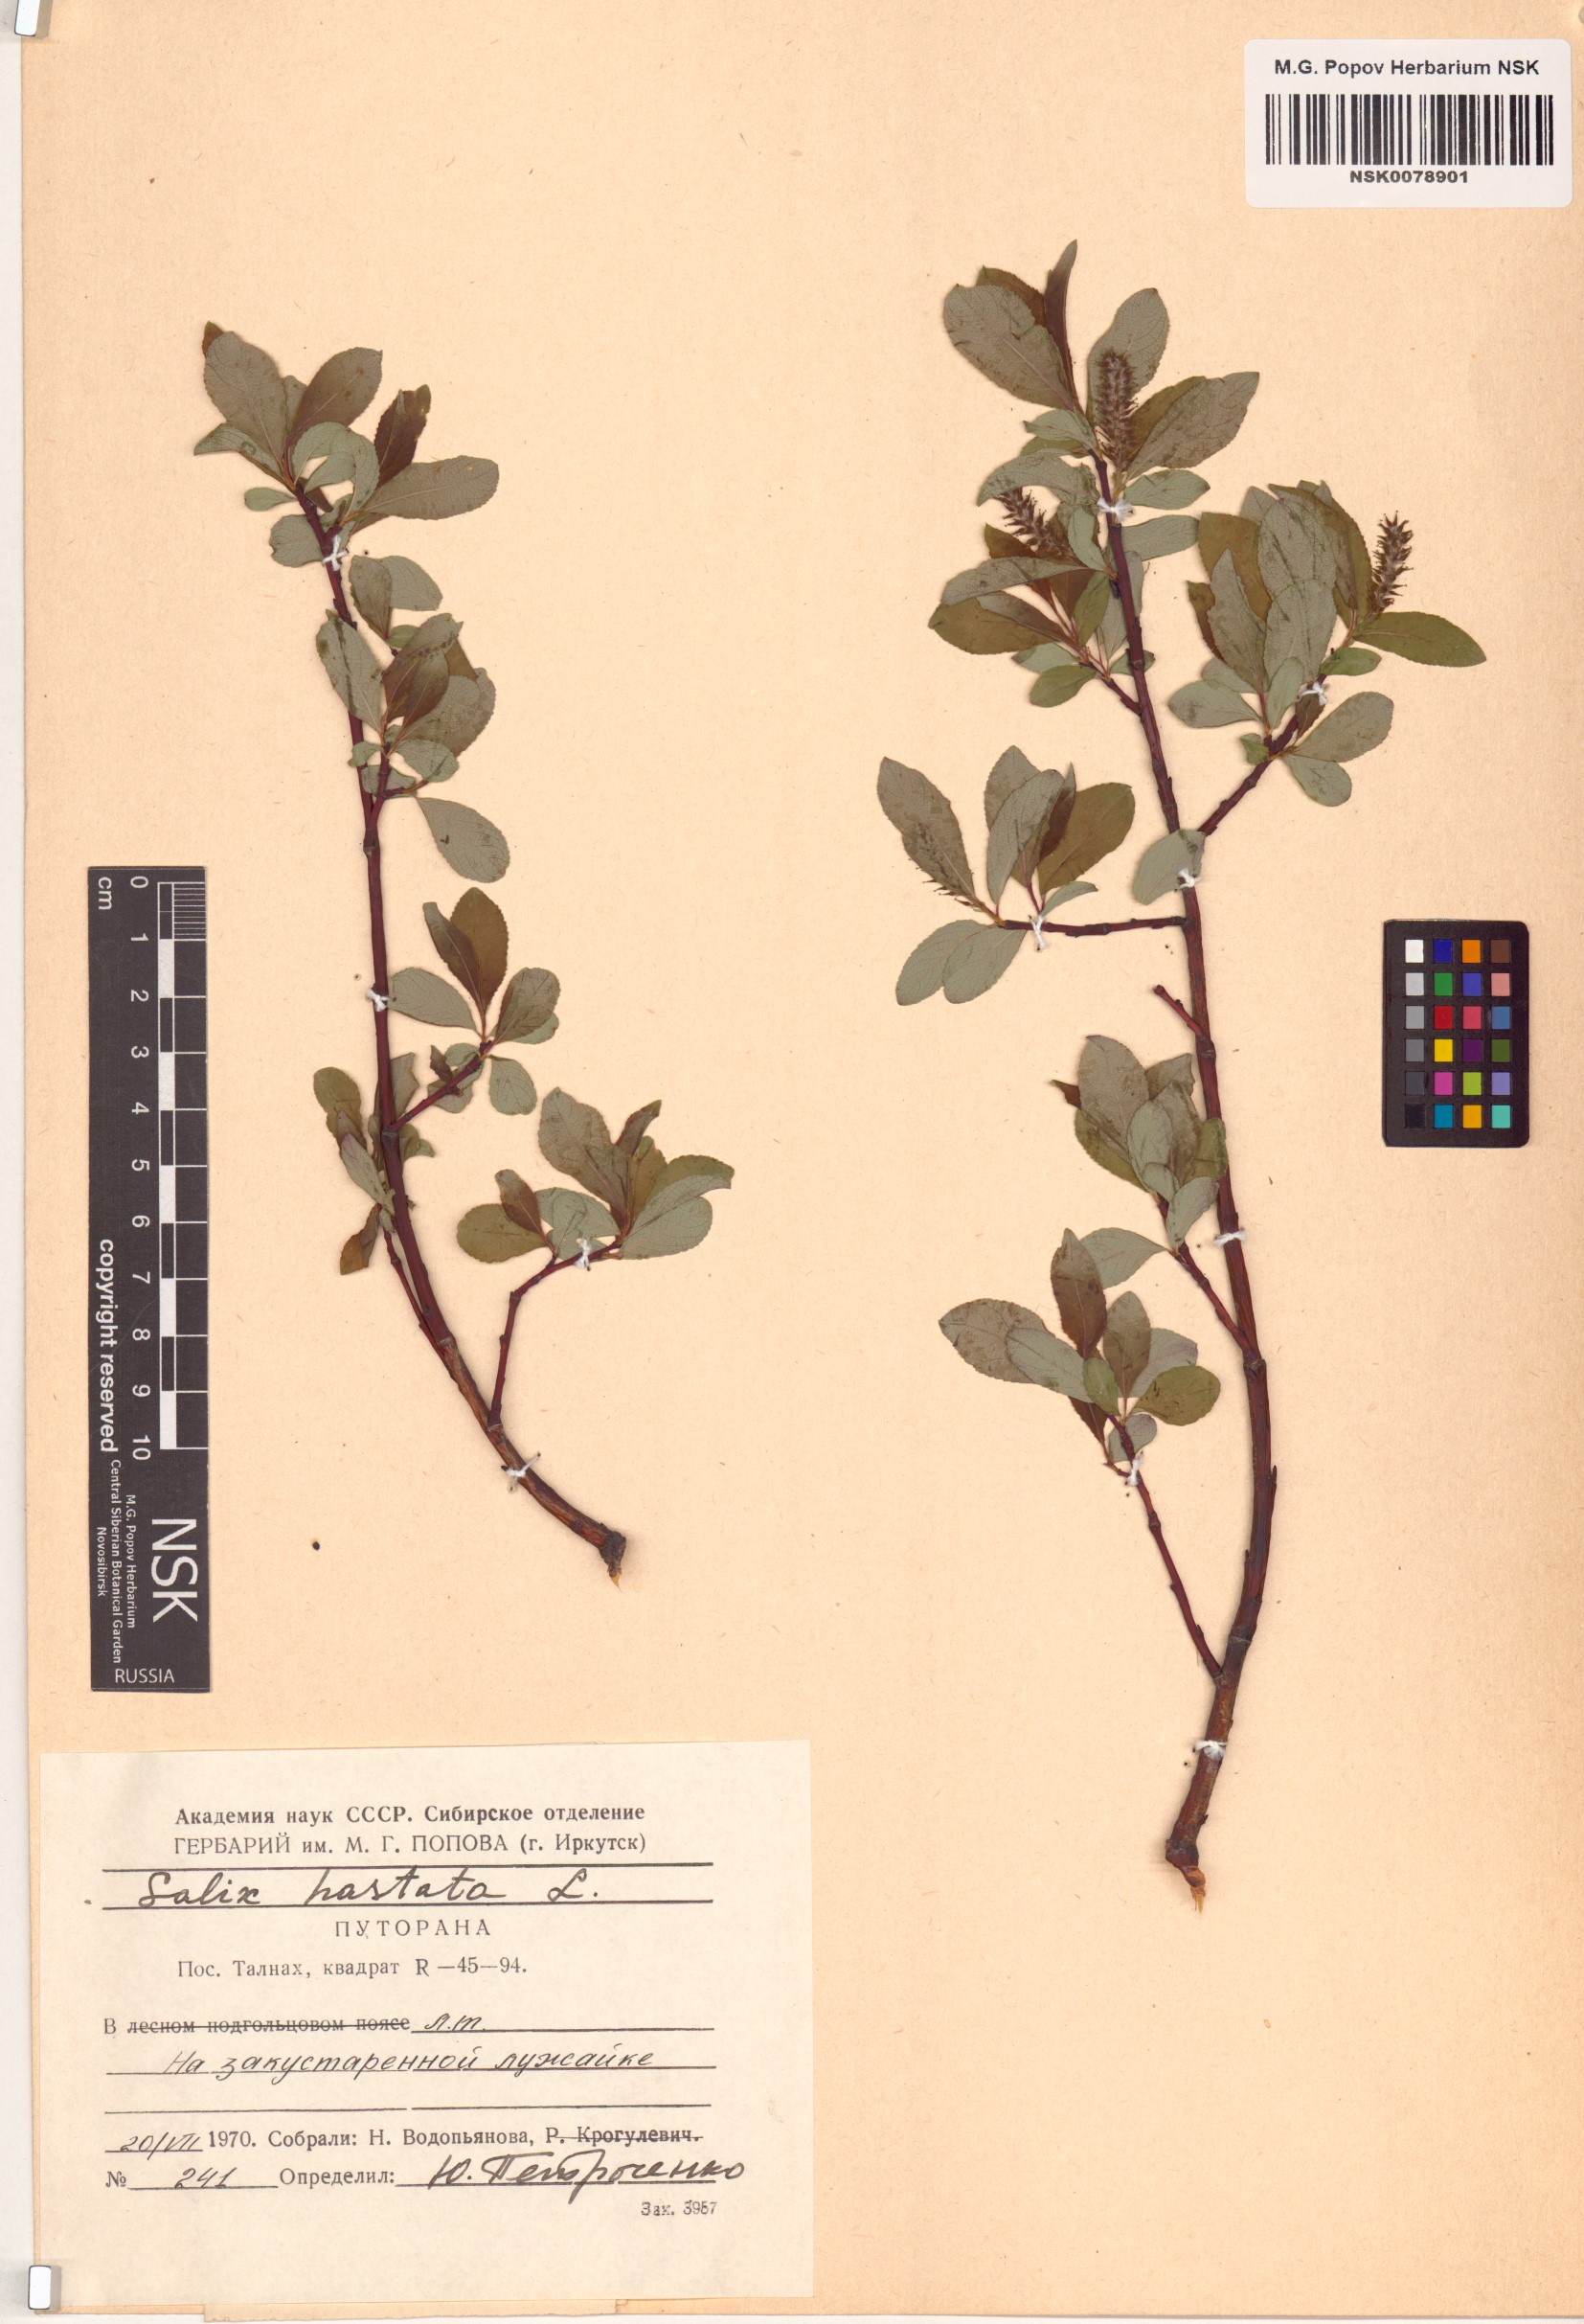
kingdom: Plantae
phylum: Tracheophyta
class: Magnoliopsida
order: Malpighiales
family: Salicaceae
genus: Salix
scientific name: Salix hastata
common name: Halberd willow
